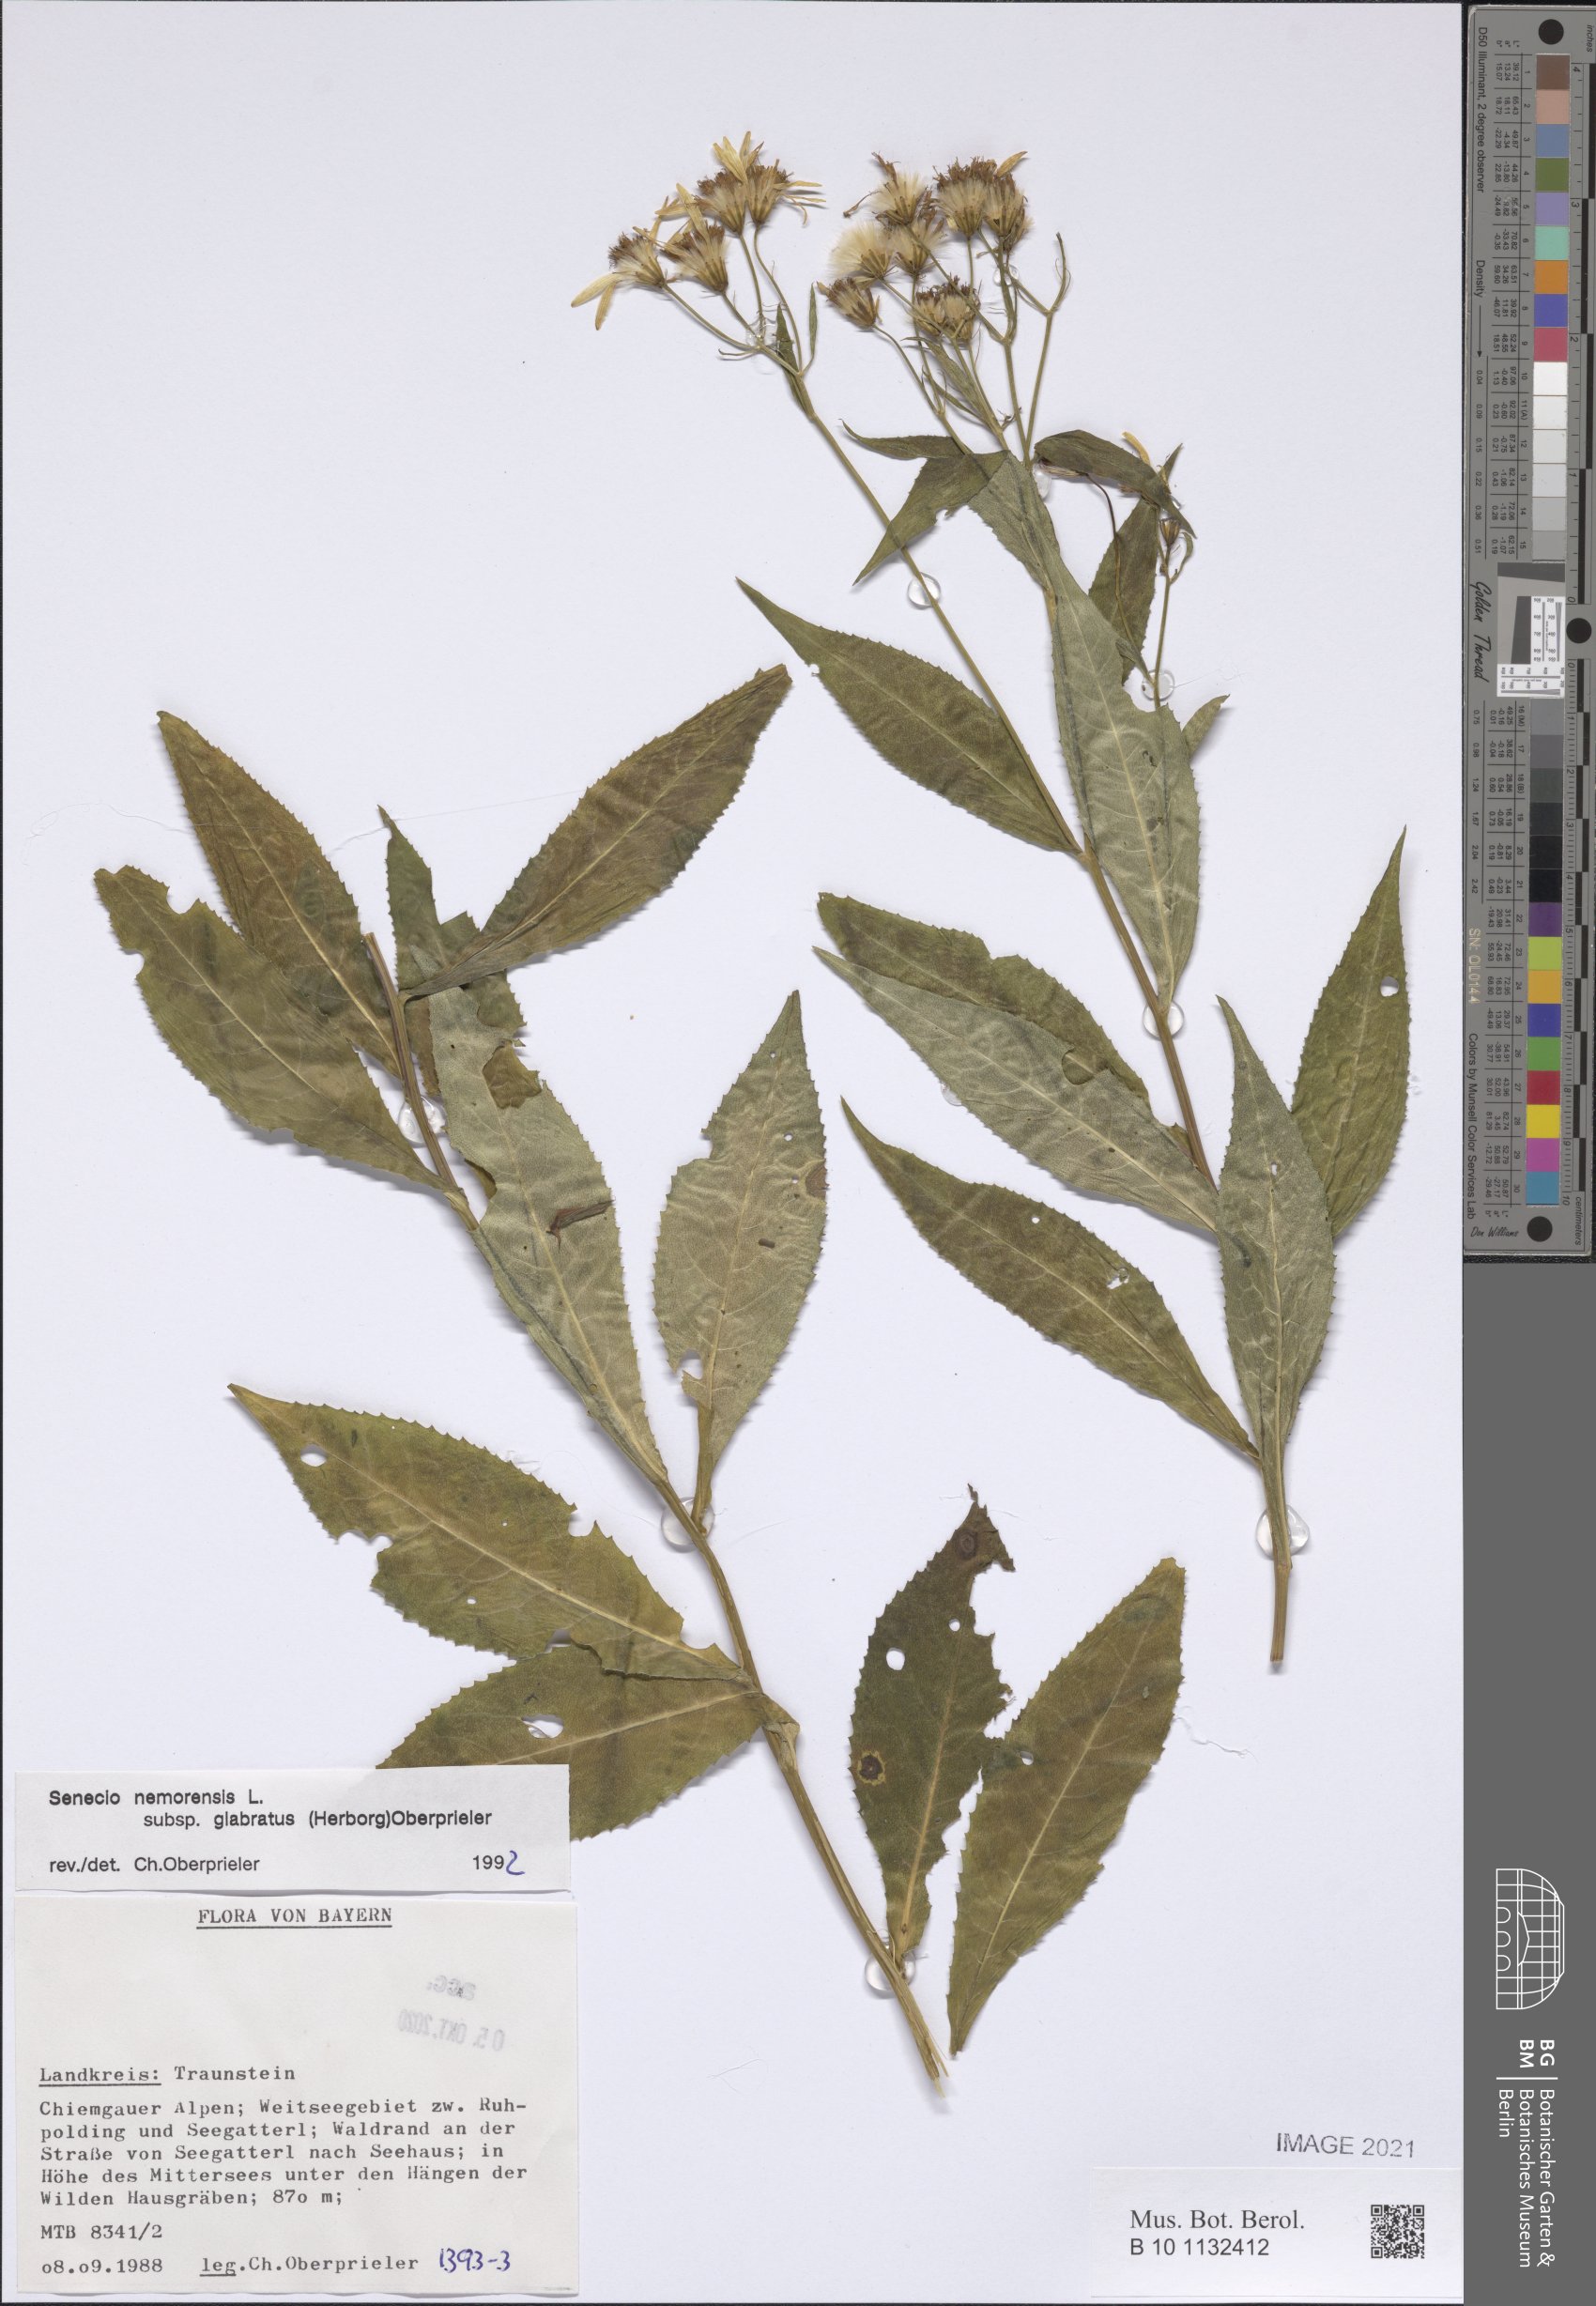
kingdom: Plantae
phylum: Tracheophyta
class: Magnoliopsida
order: Asterales
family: Asteraceae
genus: Senecio
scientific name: Senecio germanicus
